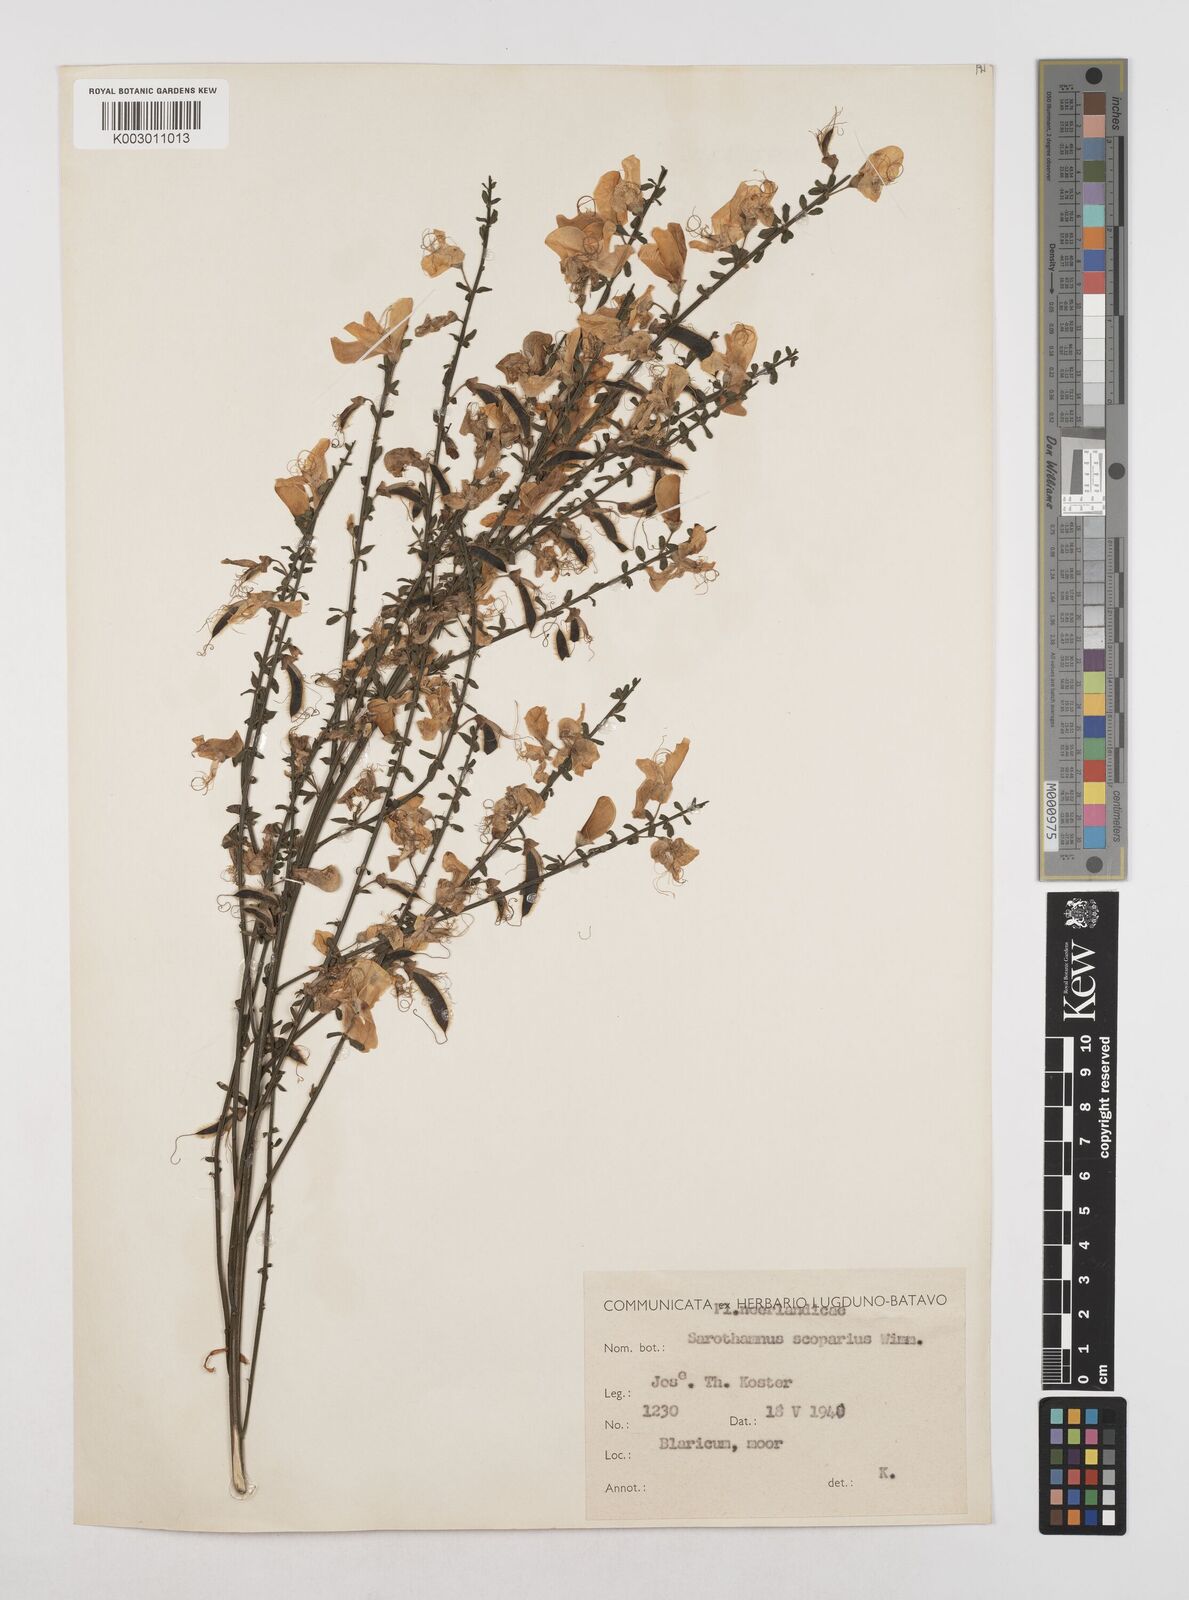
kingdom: Plantae
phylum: Tracheophyta
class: Magnoliopsida
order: Fabales
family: Fabaceae
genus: Cytisus
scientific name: Cytisus scoparius
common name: Scotch broom
